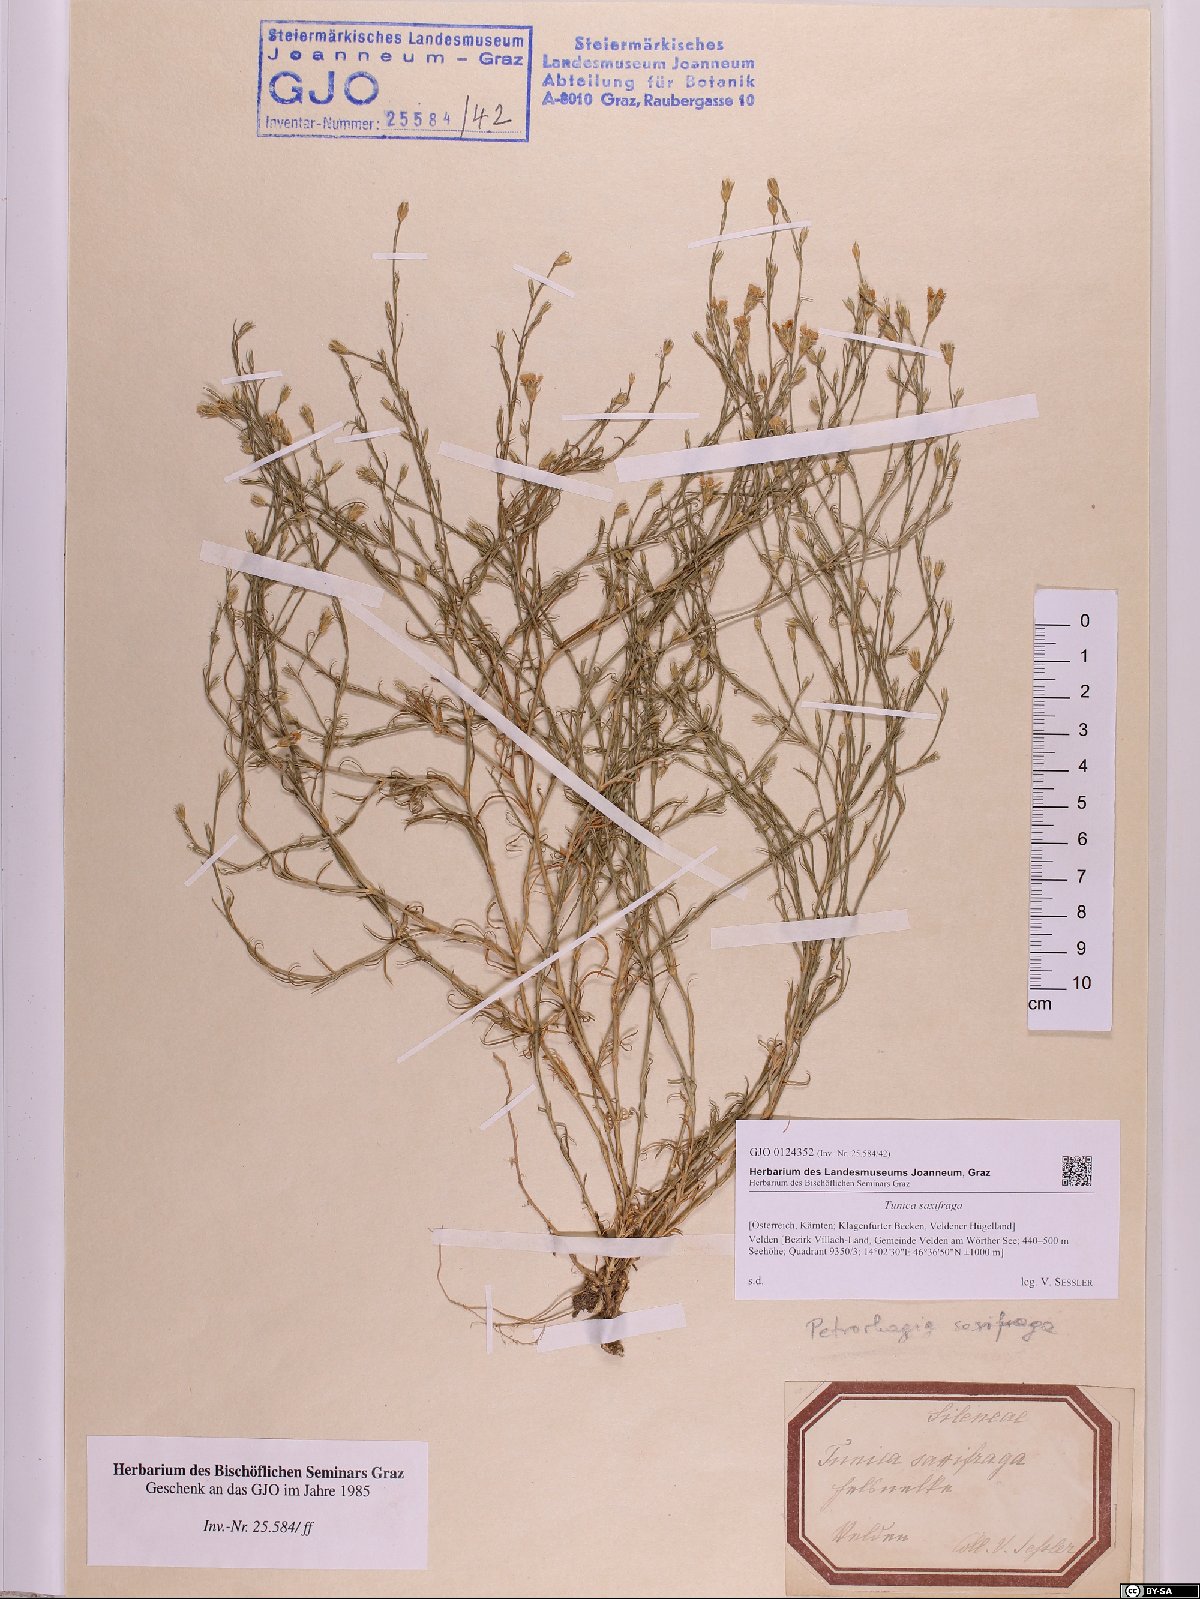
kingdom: Plantae
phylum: Tracheophyta
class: Magnoliopsida
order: Caryophyllales
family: Caryophyllaceae
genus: Petrorhagia
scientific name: Petrorhagia saxifraga
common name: Tunicflower
